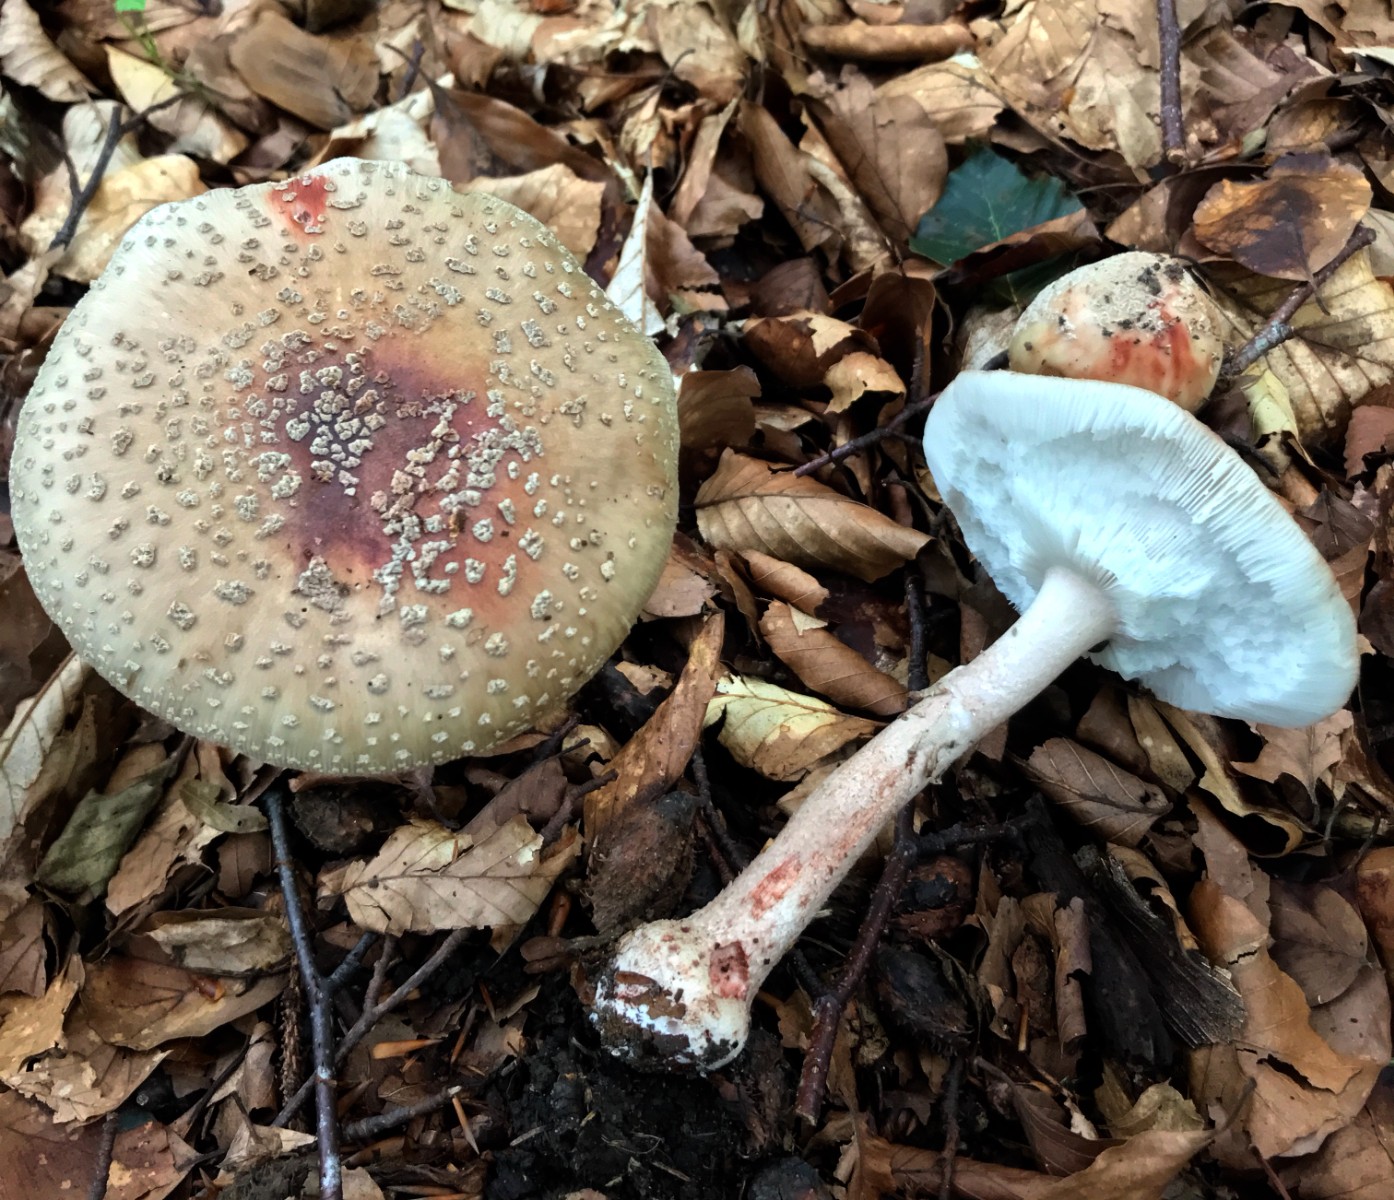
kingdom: Fungi
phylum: Basidiomycota
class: Agaricomycetes
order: Agaricales
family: Amanitaceae
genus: Amanita
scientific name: Amanita rubescens
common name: rødmende fluesvamp
